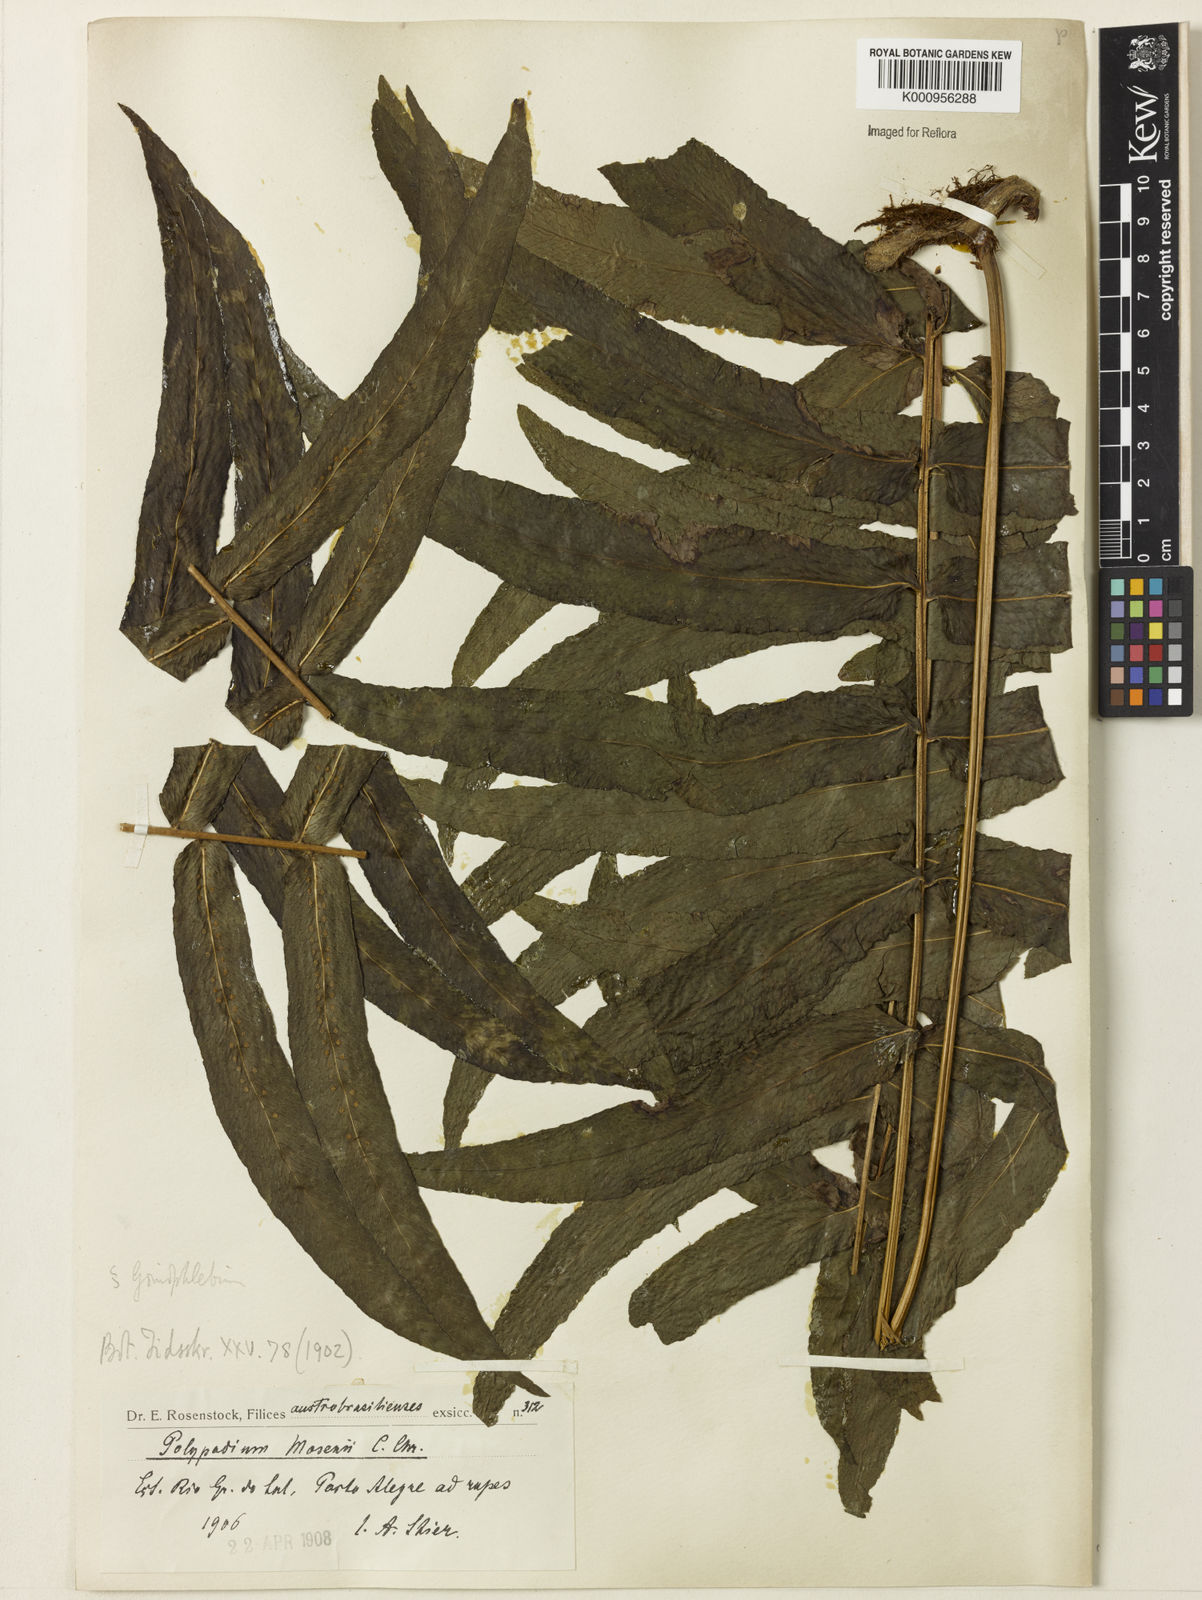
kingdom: Plantae
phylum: Tracheophyta
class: Polypodiopsida
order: Polypodiales
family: Polypodiaceae
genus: Serpocaulon
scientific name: Serpocaulon menisciifolium
